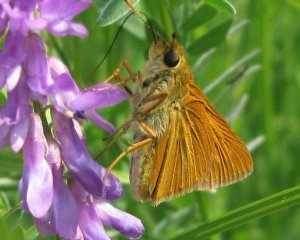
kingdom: Animalia
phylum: Arthropoda
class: Insecta
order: Lepidoptera
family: Hesperiidae
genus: Euphyes
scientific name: Euphyes dion
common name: Dion Skipper
